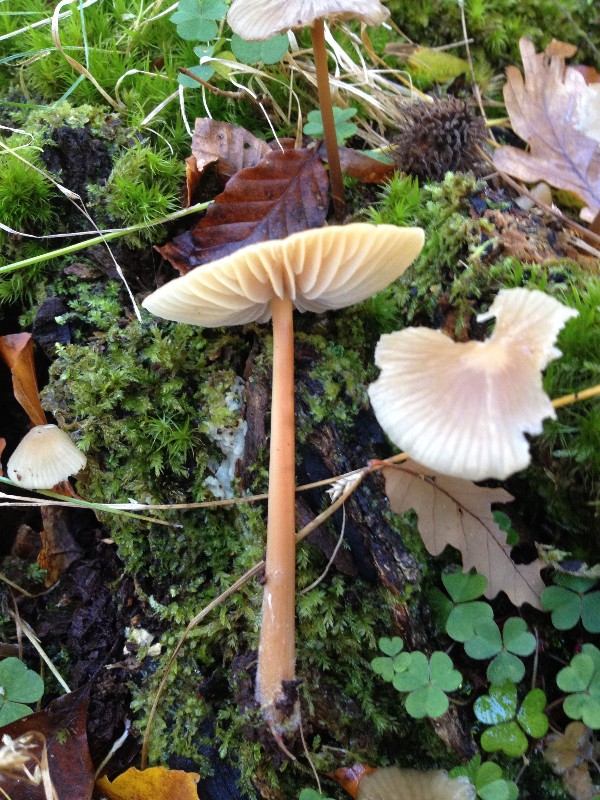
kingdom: Fungi
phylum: Basidiomycota
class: Agaricomycetes
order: Agaricales
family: Physalacriaceae
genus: Hymenopellis
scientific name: Hymenopellis radicata
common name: almindelig pælerodshat
